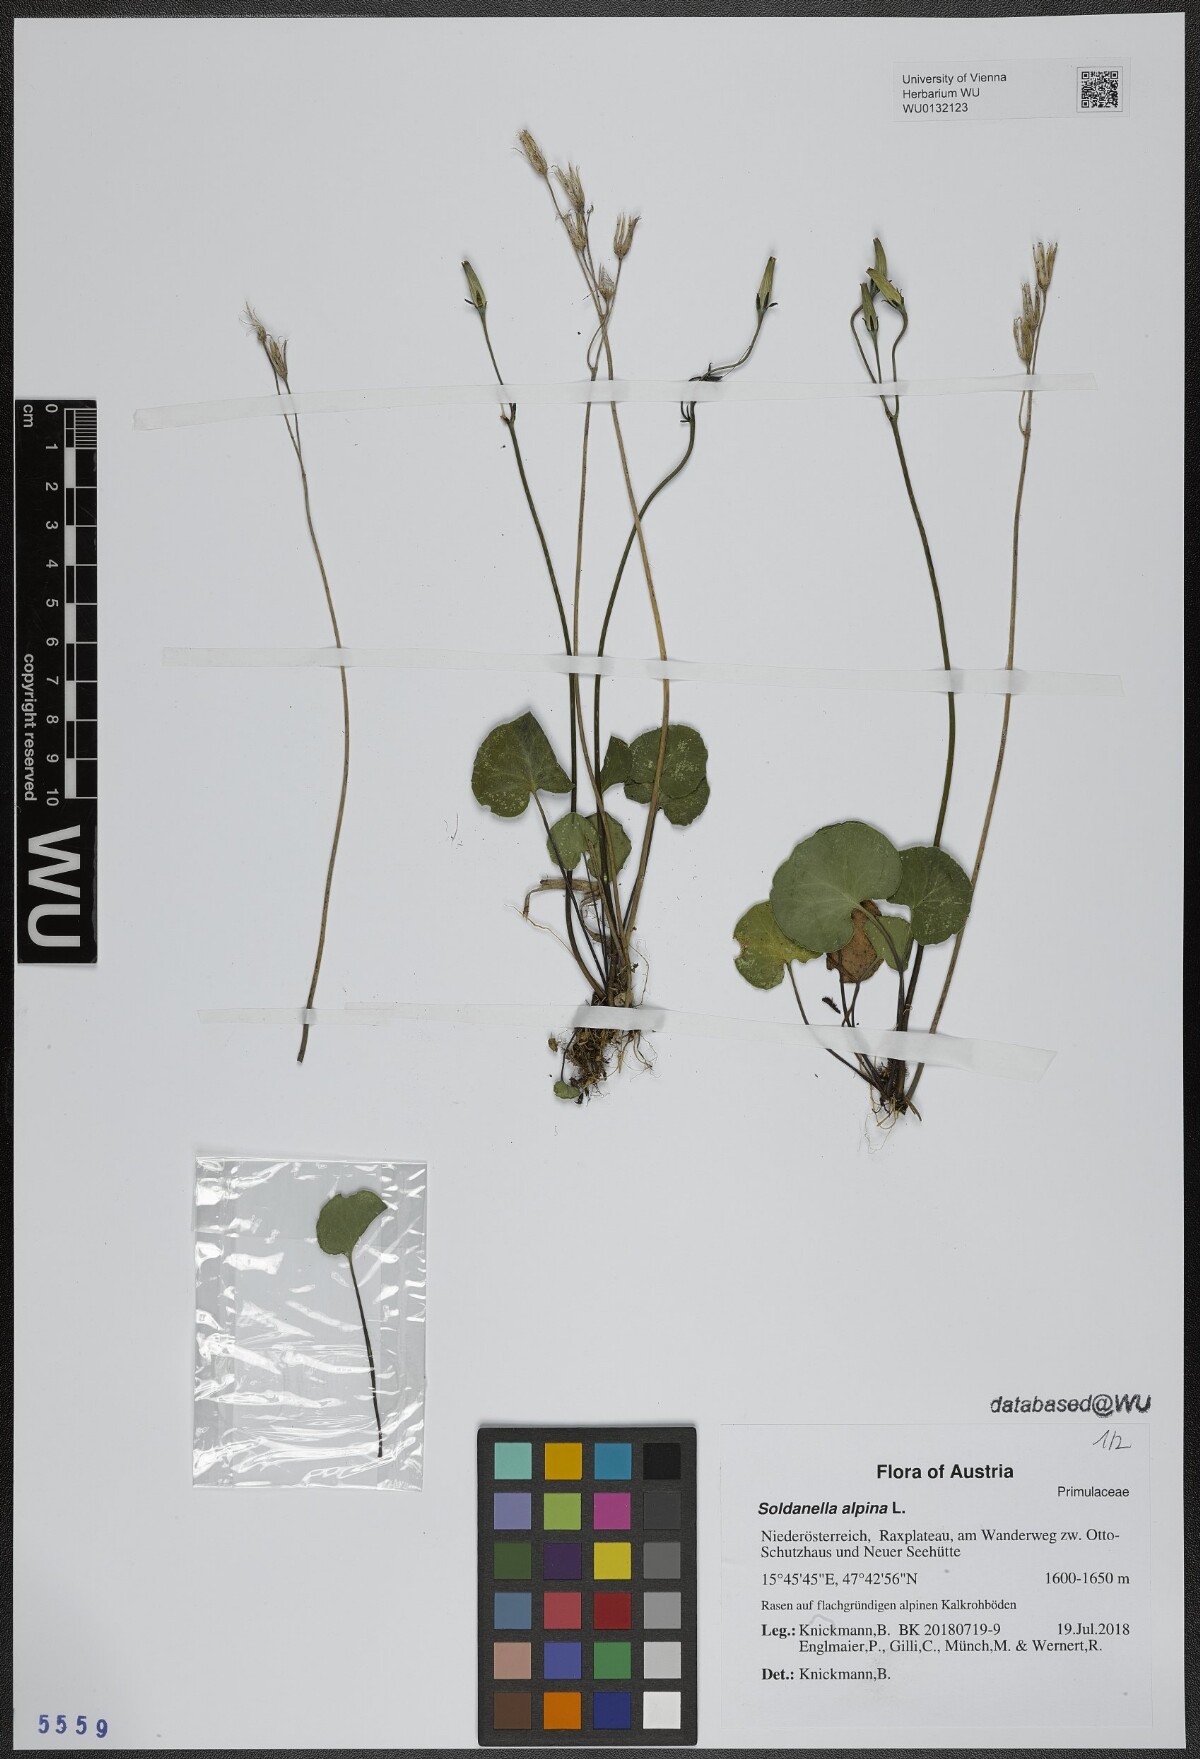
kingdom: Plantae
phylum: Tracheophyta
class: Magnoliopsida
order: Ericales
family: Primulaceae
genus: Soldanella
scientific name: Soldanella alpina
